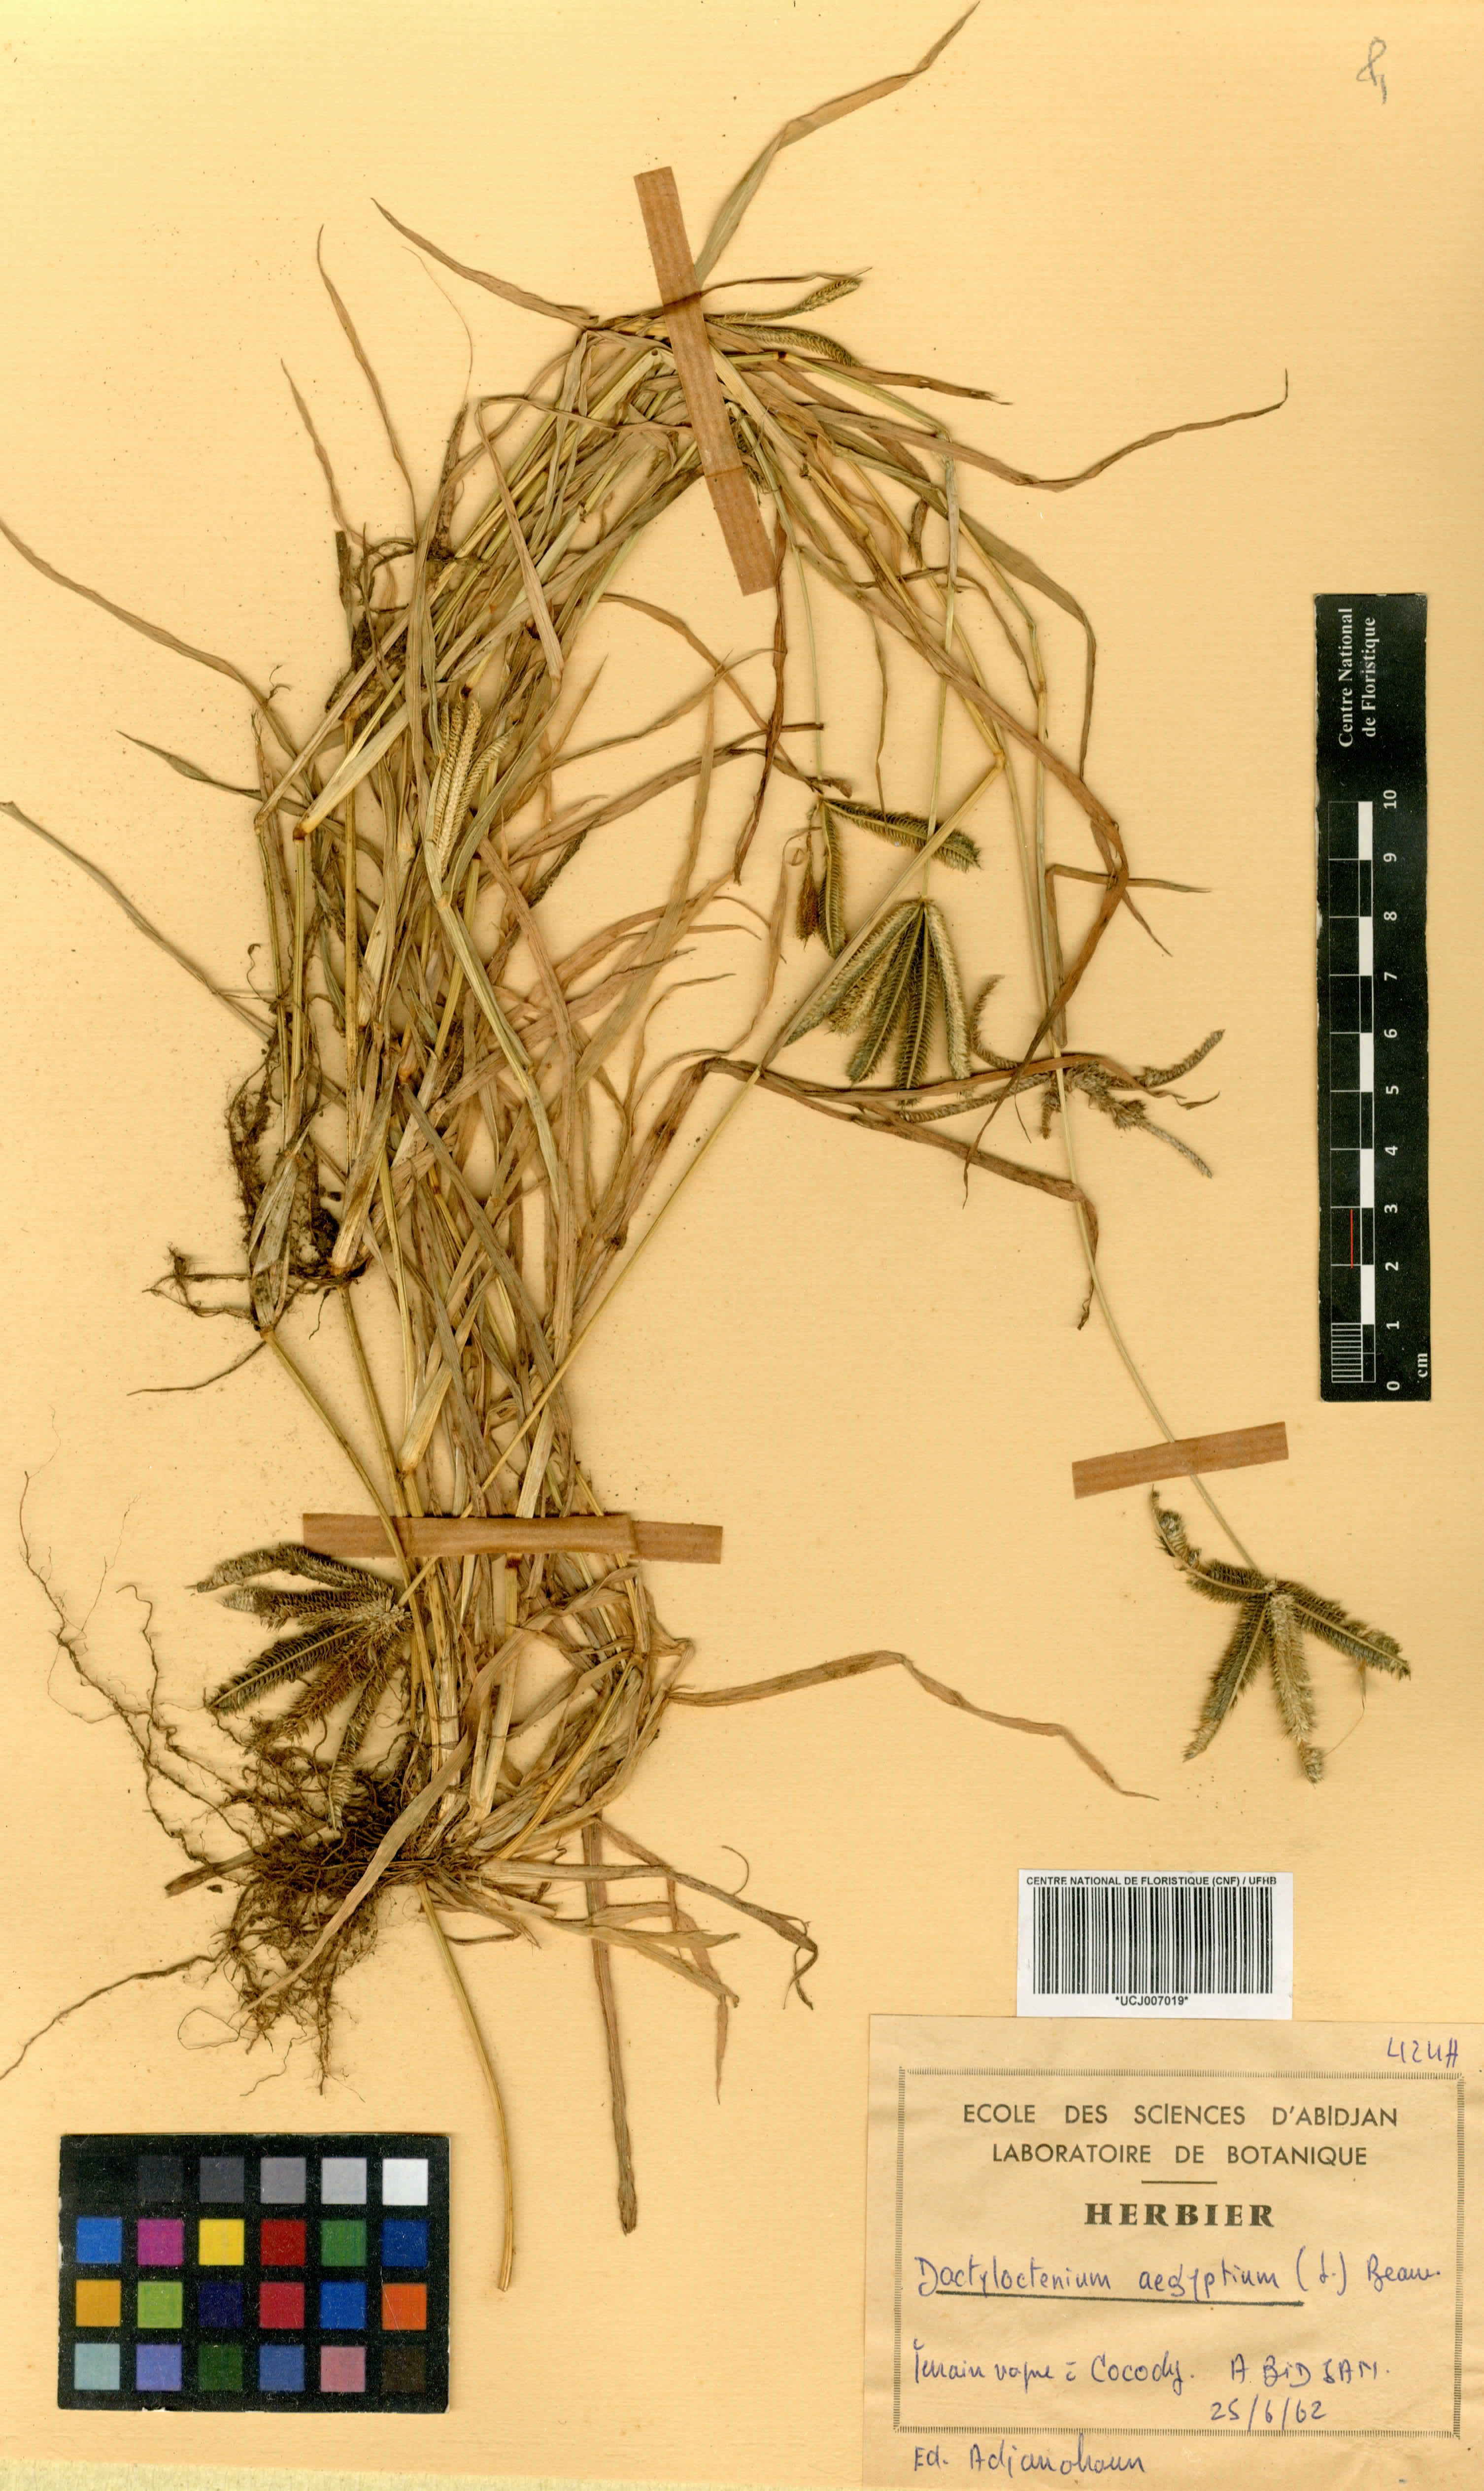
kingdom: Plantae
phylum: Tracheophyta
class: Liliopsida
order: Poales
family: Poaceae
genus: Dactyloctenium
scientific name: Dactyloctenium aegyptium
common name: Egyptian grass
